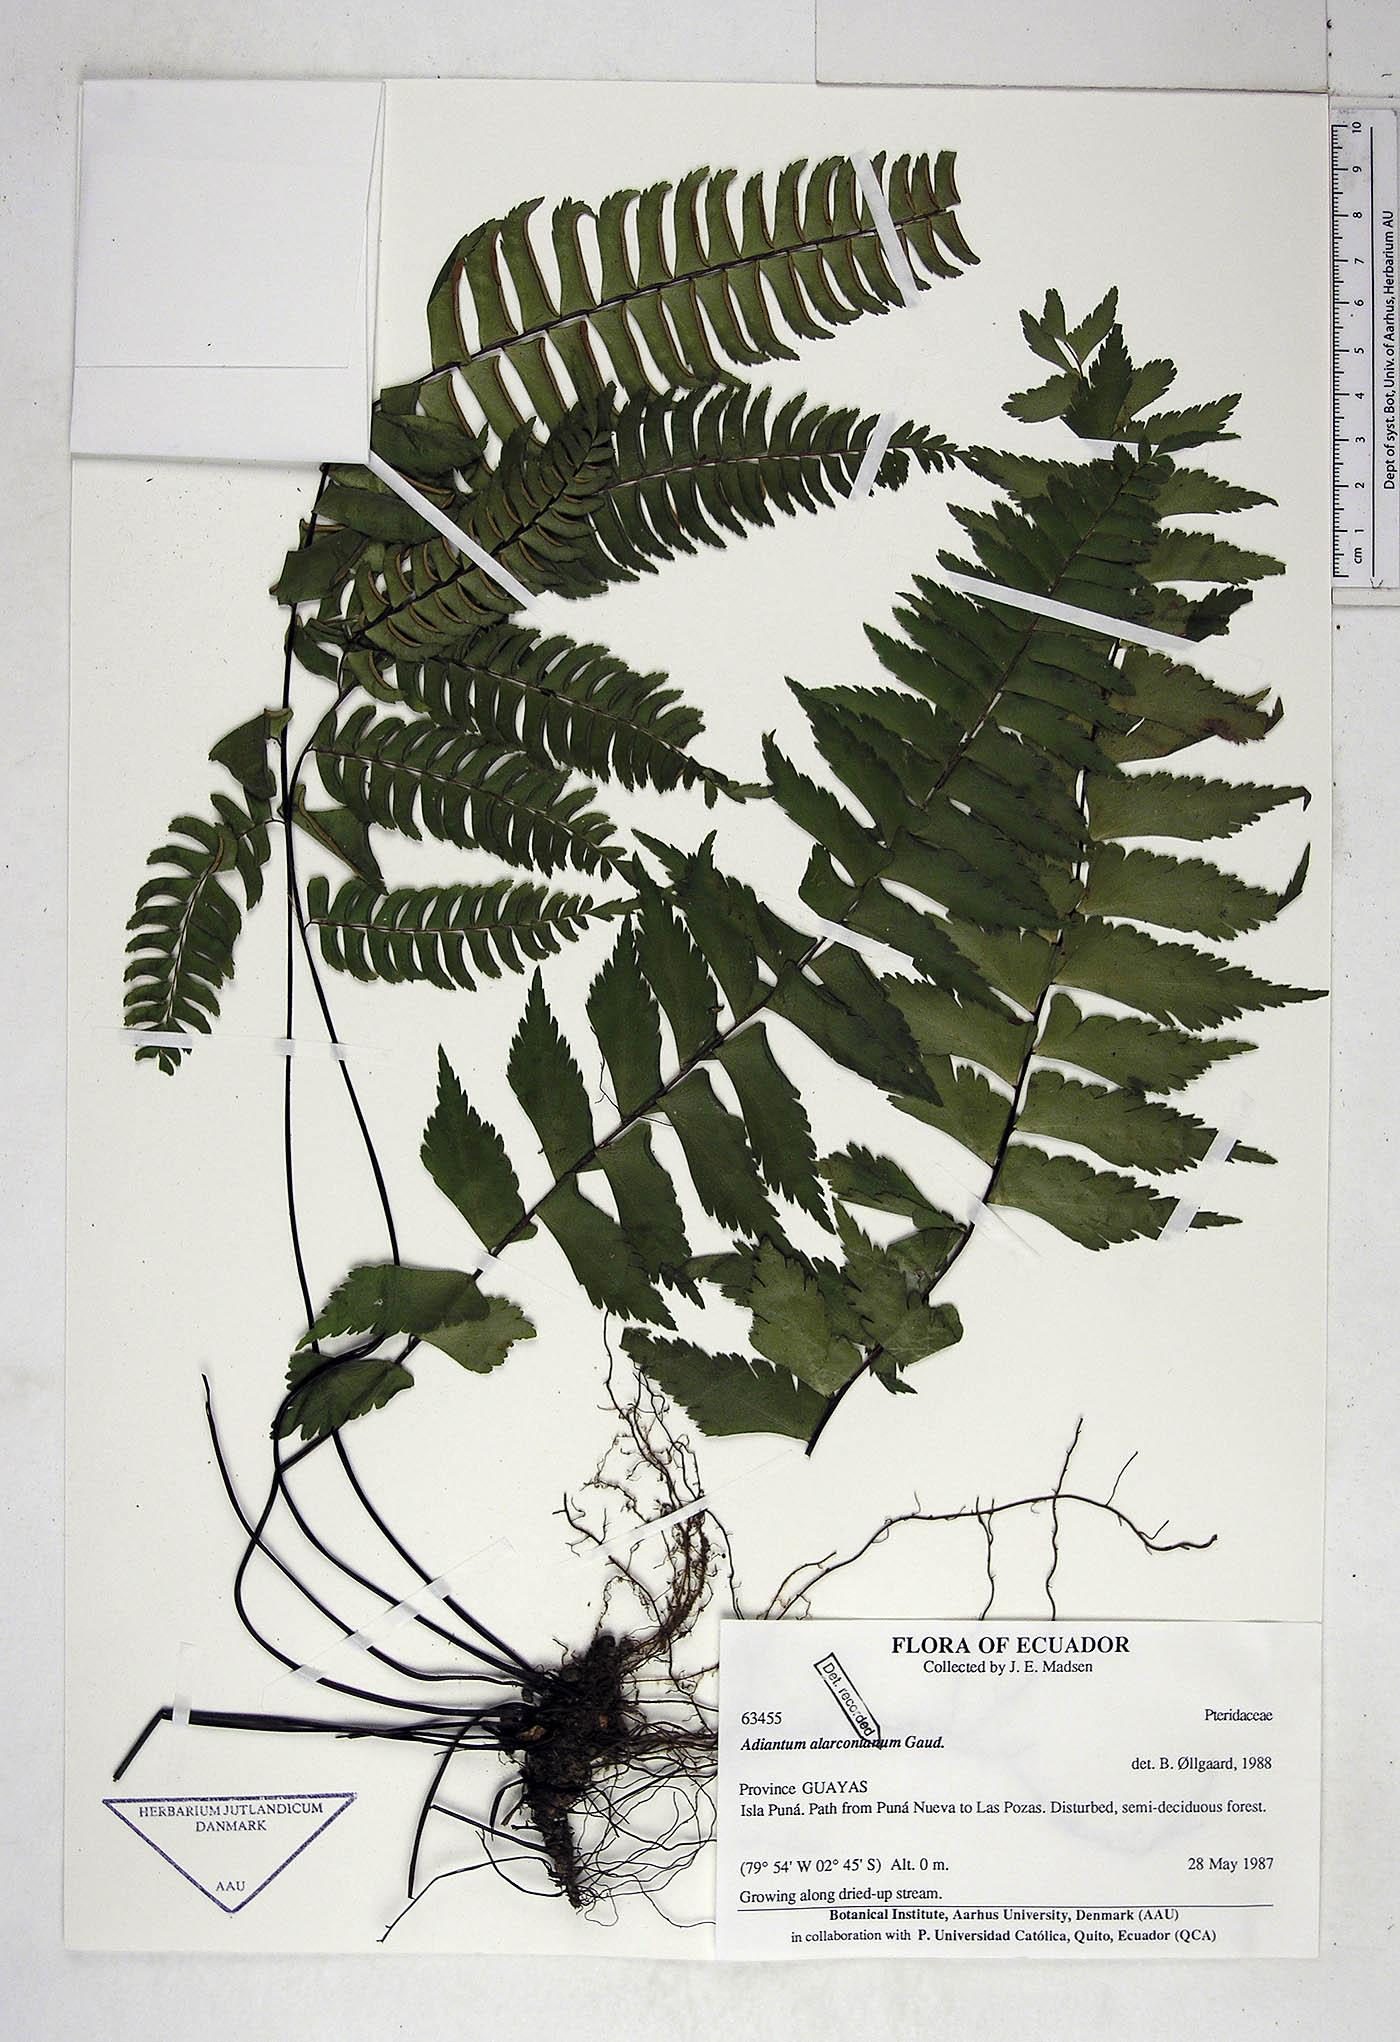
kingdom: Plantae
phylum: Tracheophyta
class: Polypodiopsida
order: Polypodiales
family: Pteridaceae
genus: Adiantum
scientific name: Adiantum alarconianum
